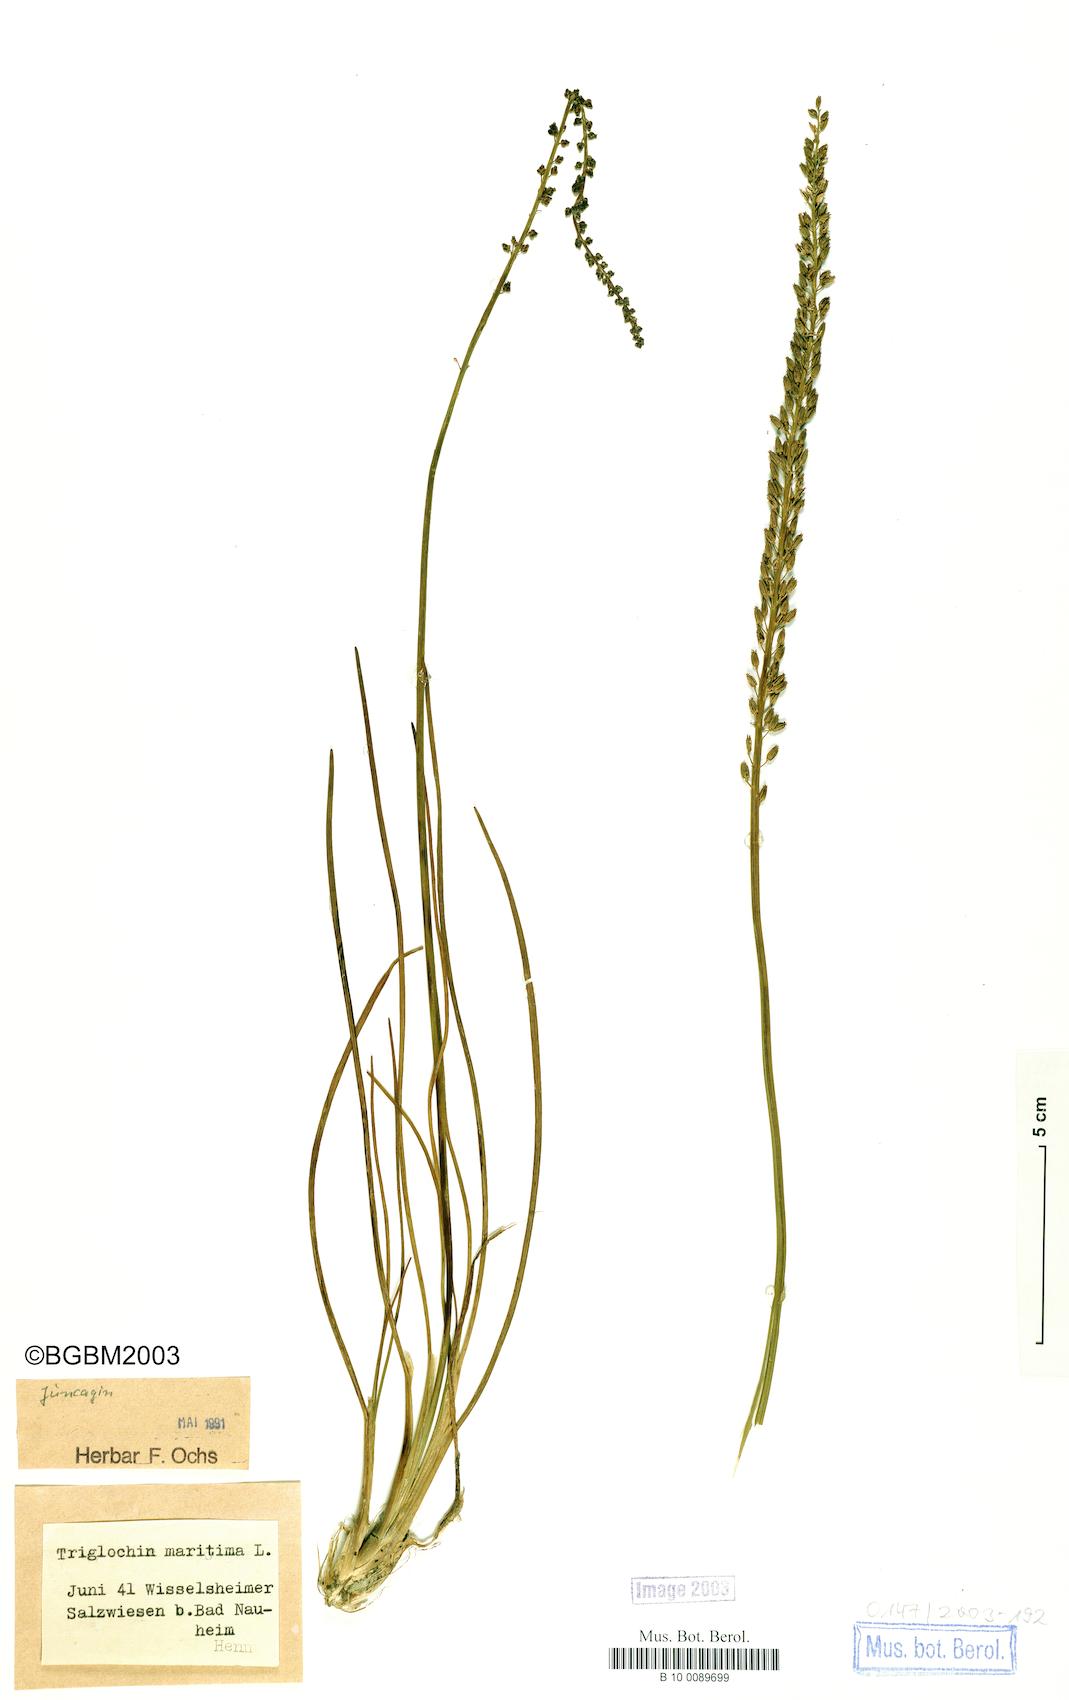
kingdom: Plantae
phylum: Tracheophyta
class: Liliopsida
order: Alismatales
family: Juncaginaceae
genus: Triglochin
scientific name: Triglochin maritima
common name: Sea arrowgrass
